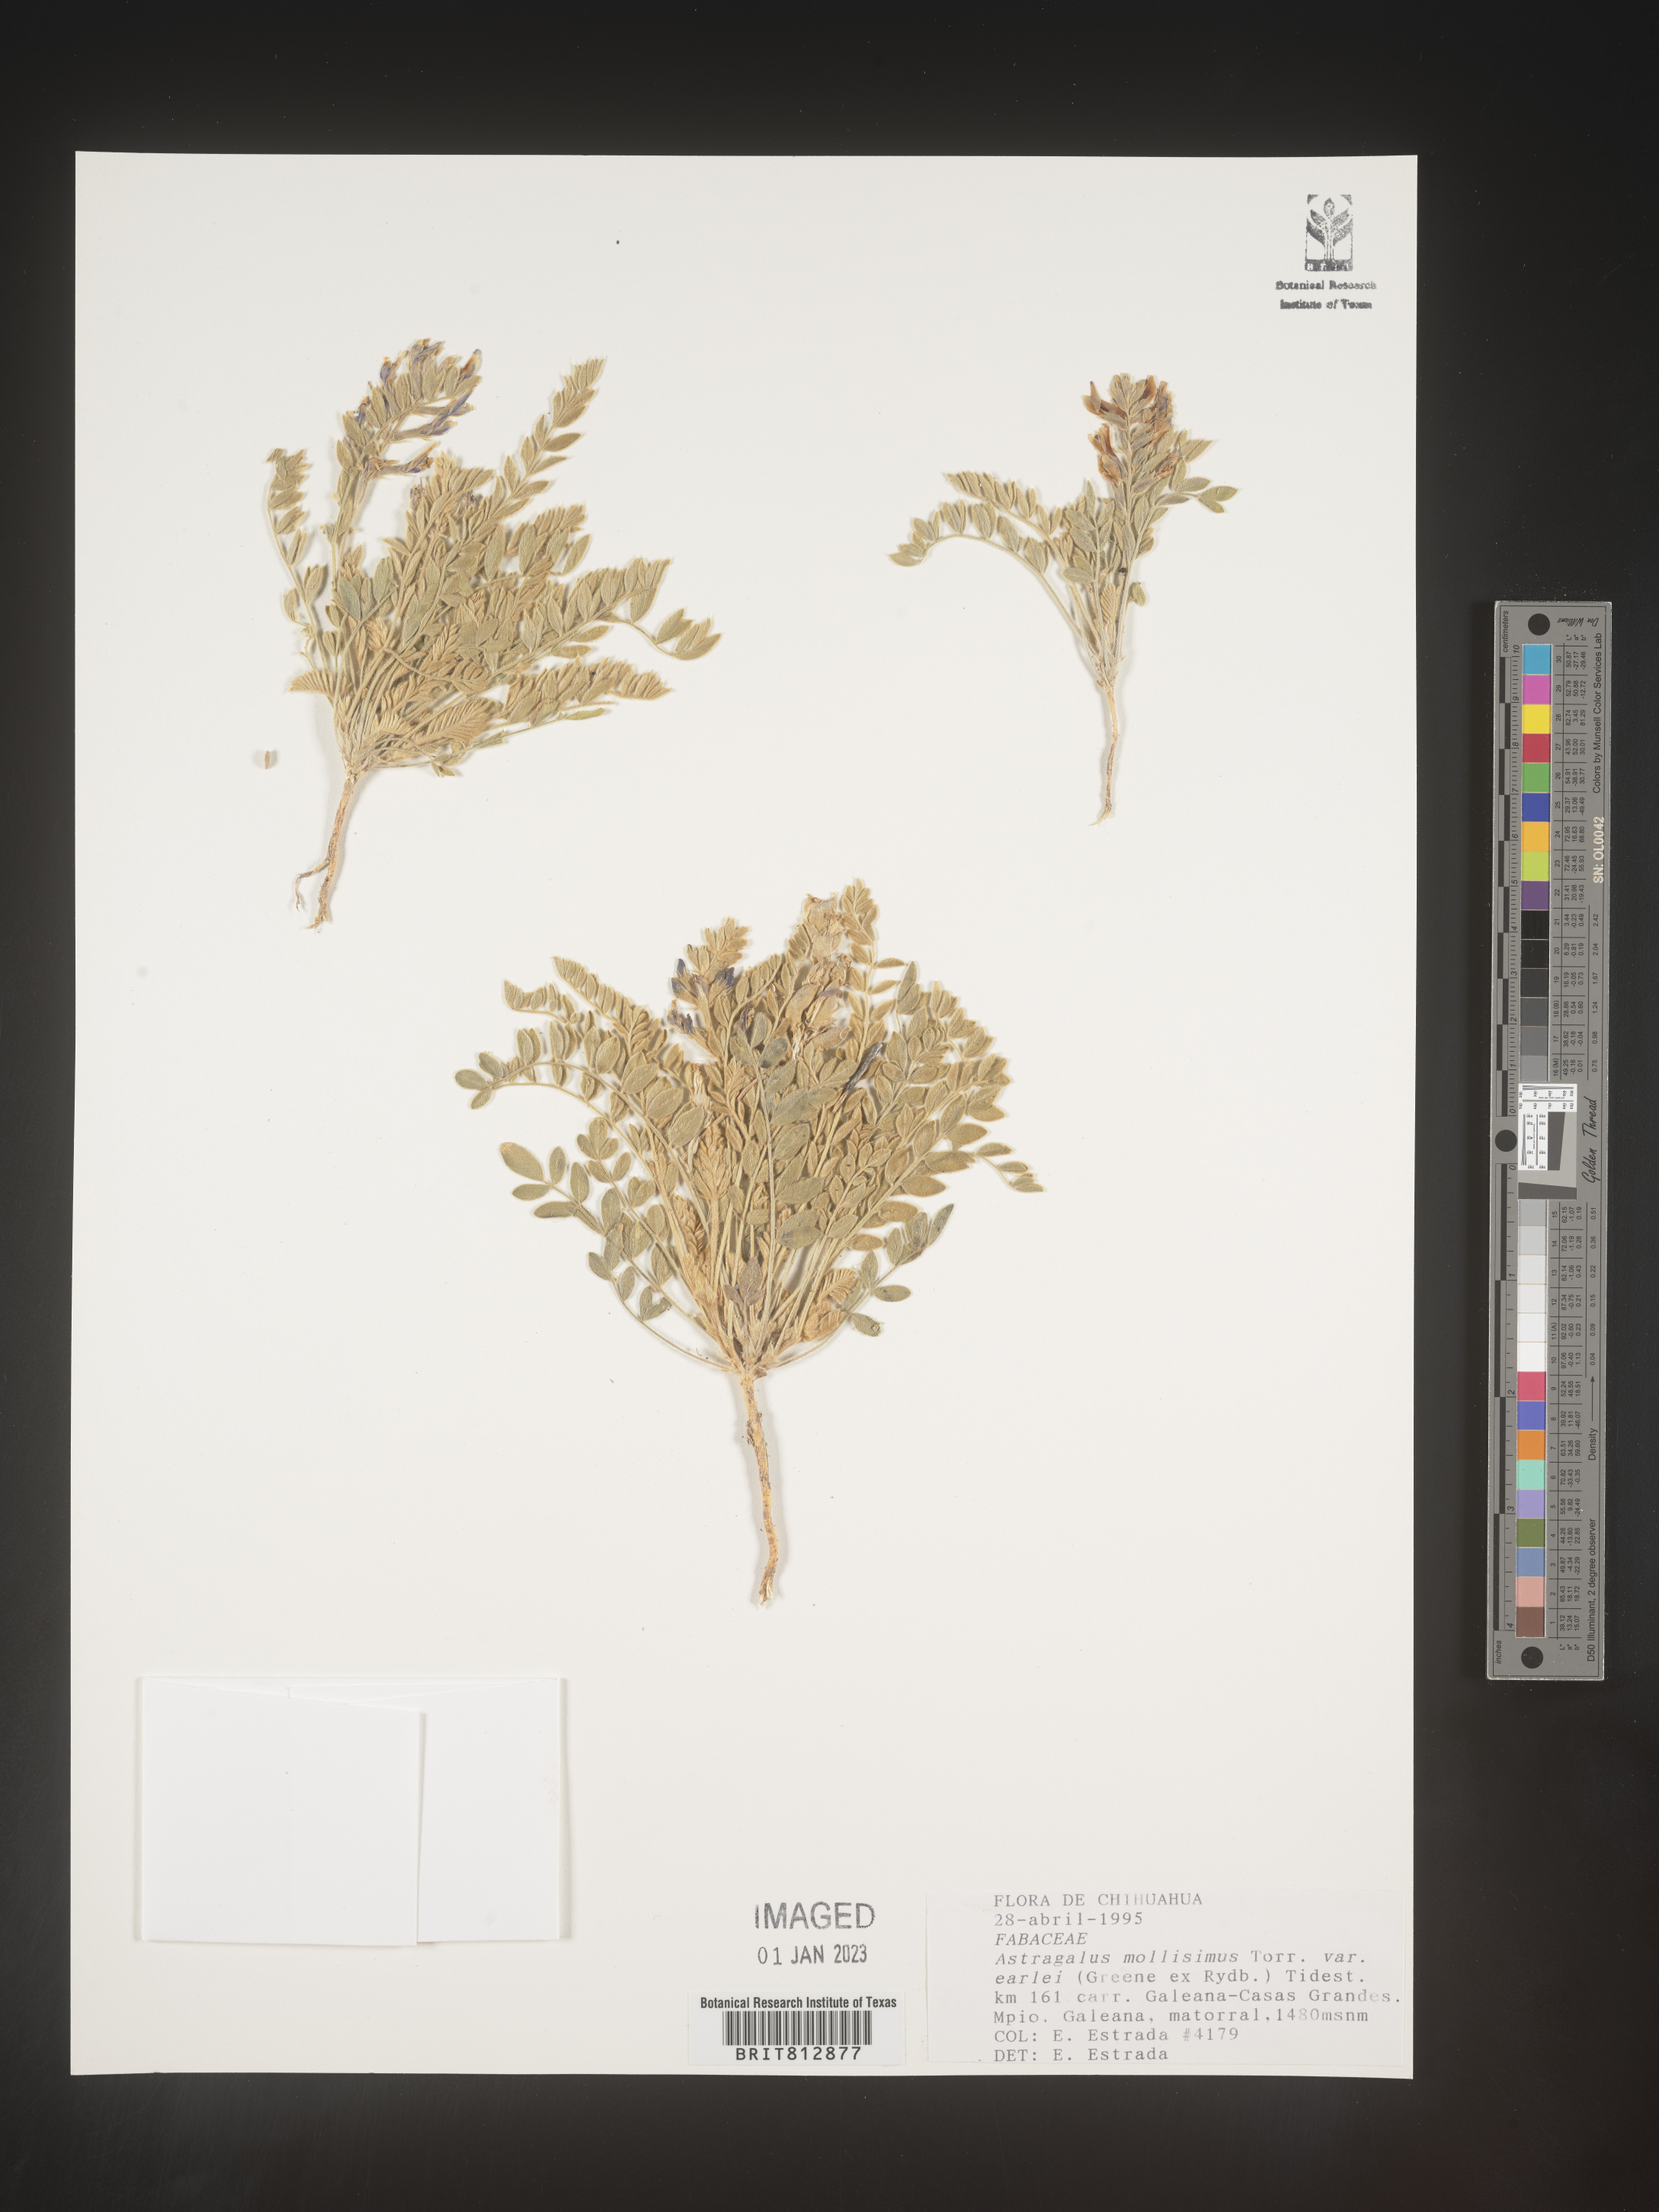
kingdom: Plantae
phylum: Tracheophyta
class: Magnoliopsida
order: Fabales
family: Fabaceae
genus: Astragalus
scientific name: Astragalus
